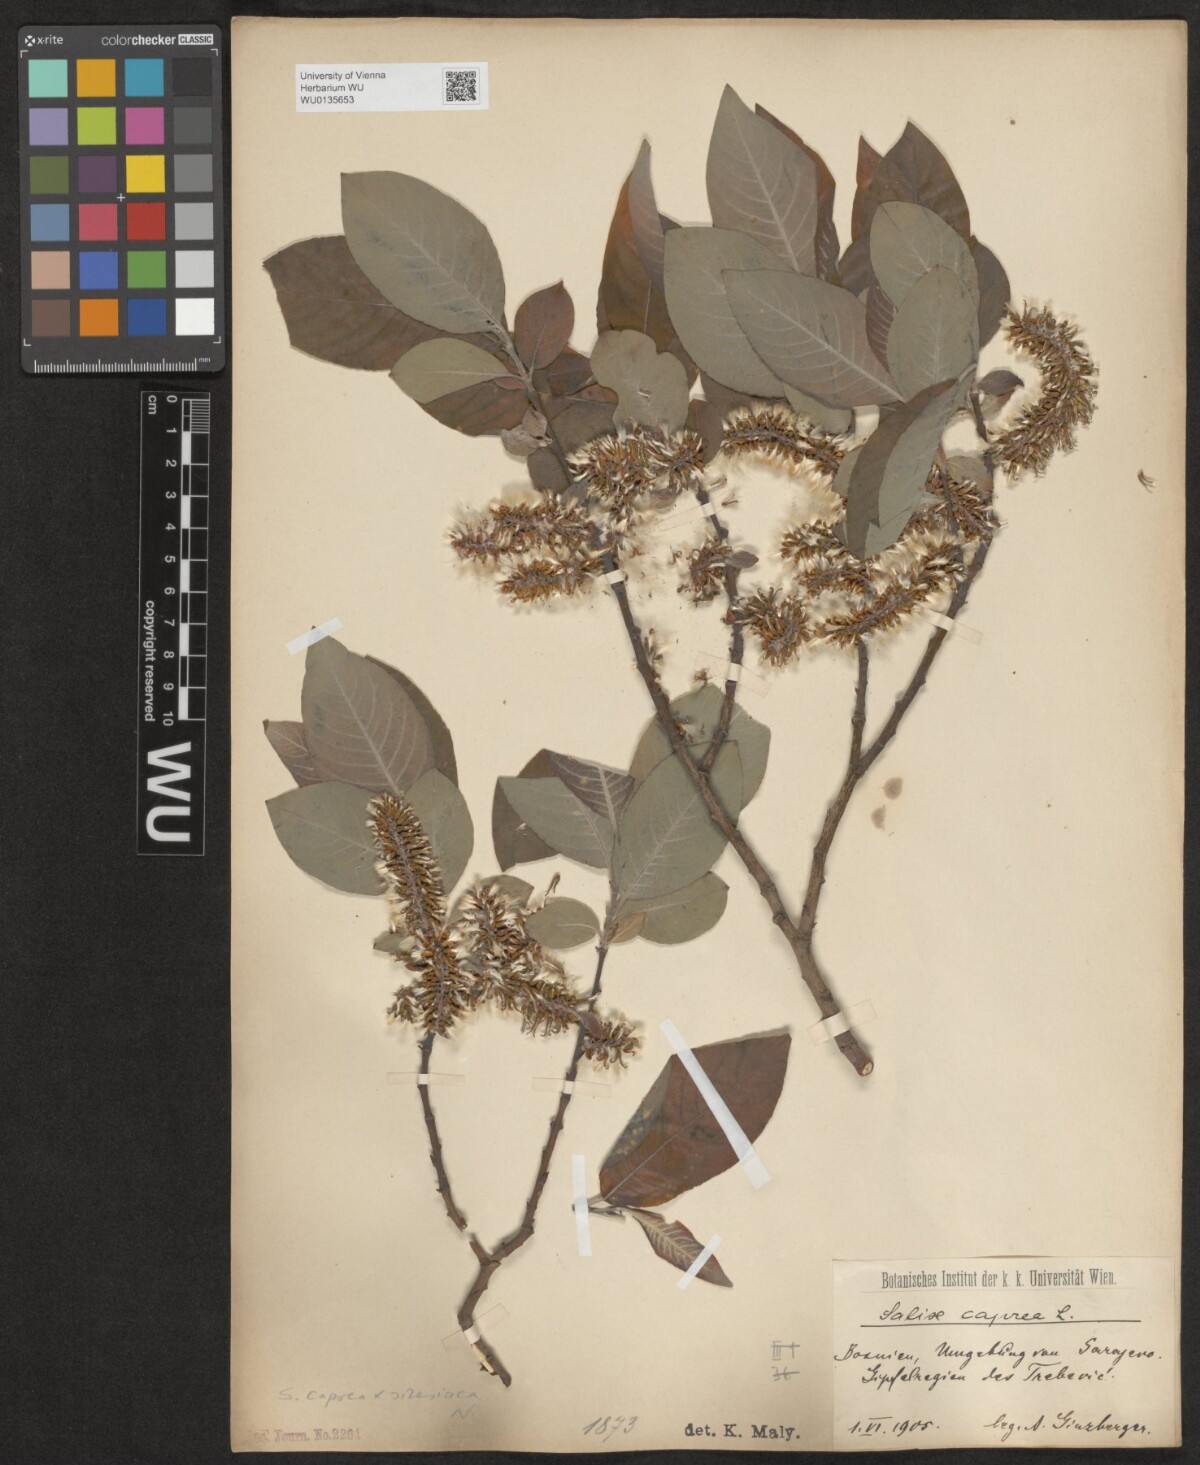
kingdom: Plantae
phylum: Tracheophyta
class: Magnoliopsida
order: Malpighiales
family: Salicaceae
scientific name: Salicaceae
